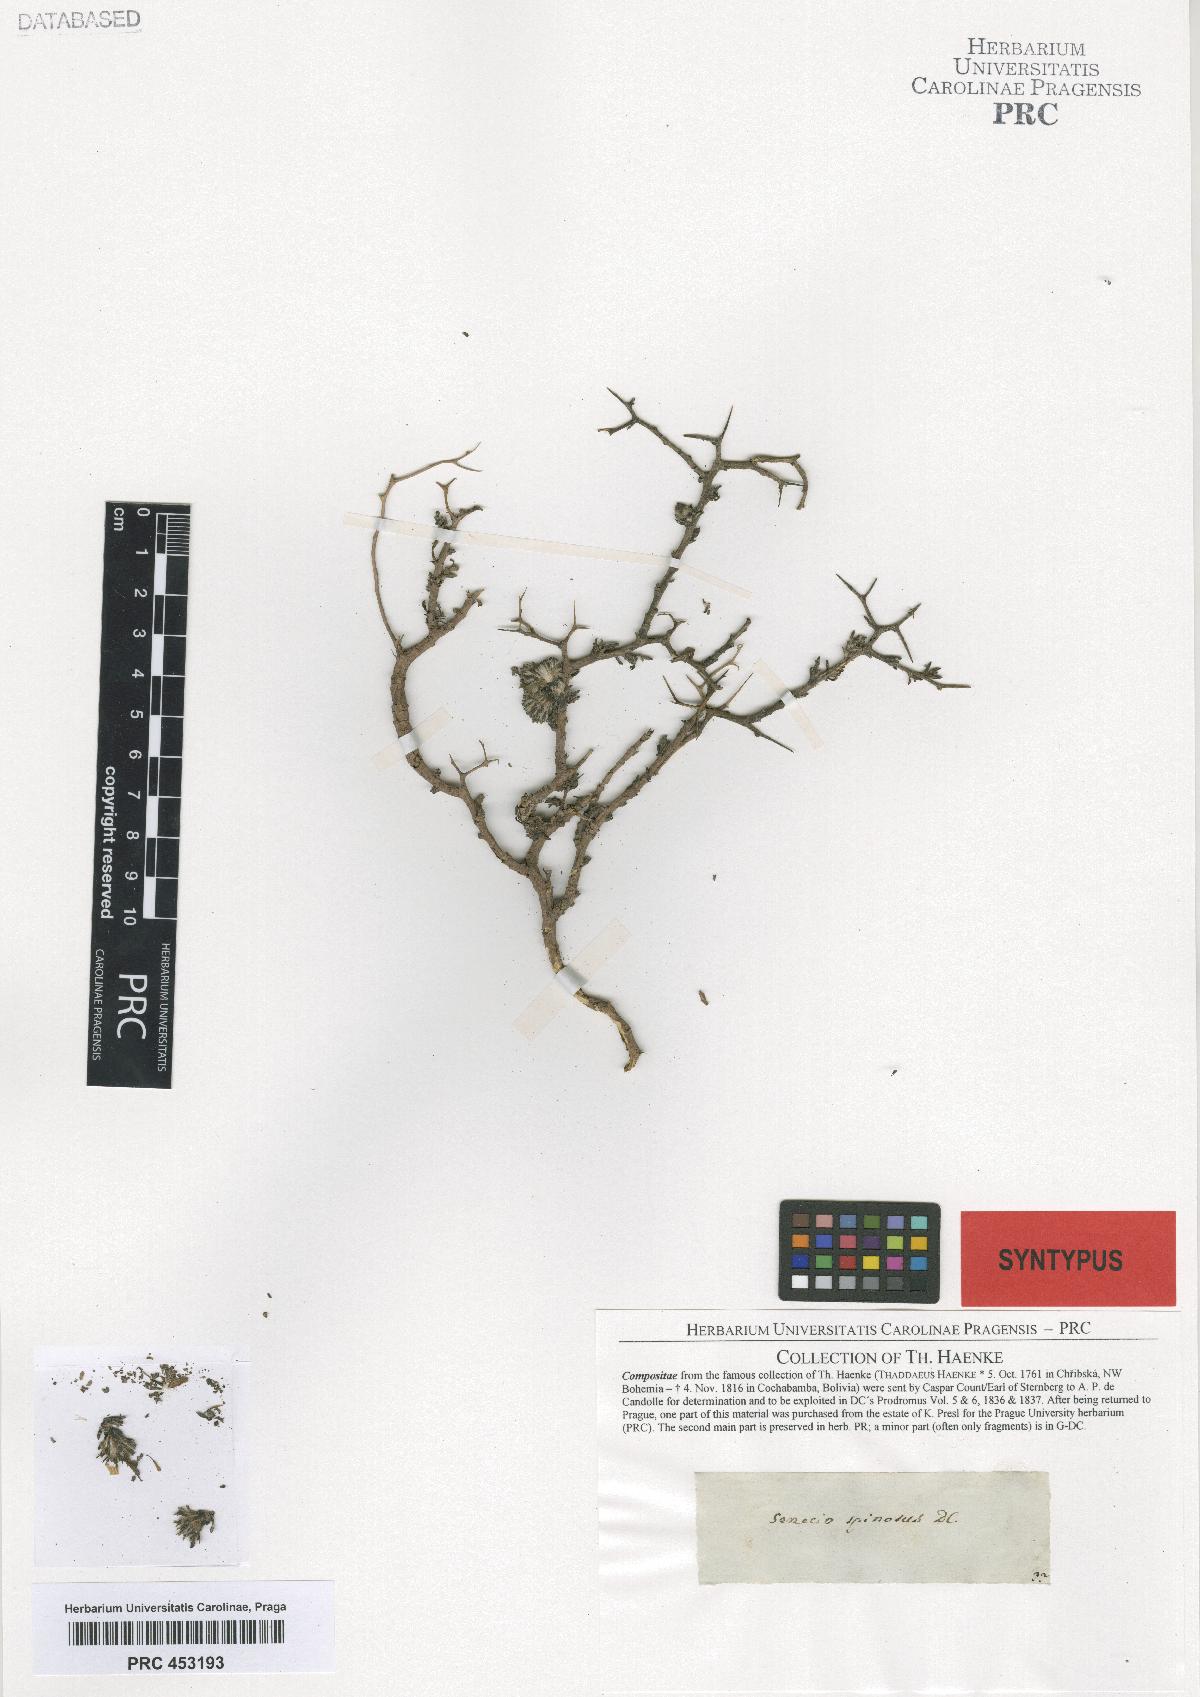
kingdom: Plantae
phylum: Tracheophyta
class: Magnoliopsida
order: Asterales
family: Asteraceae
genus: Senecio
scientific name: Senecio spinosus
